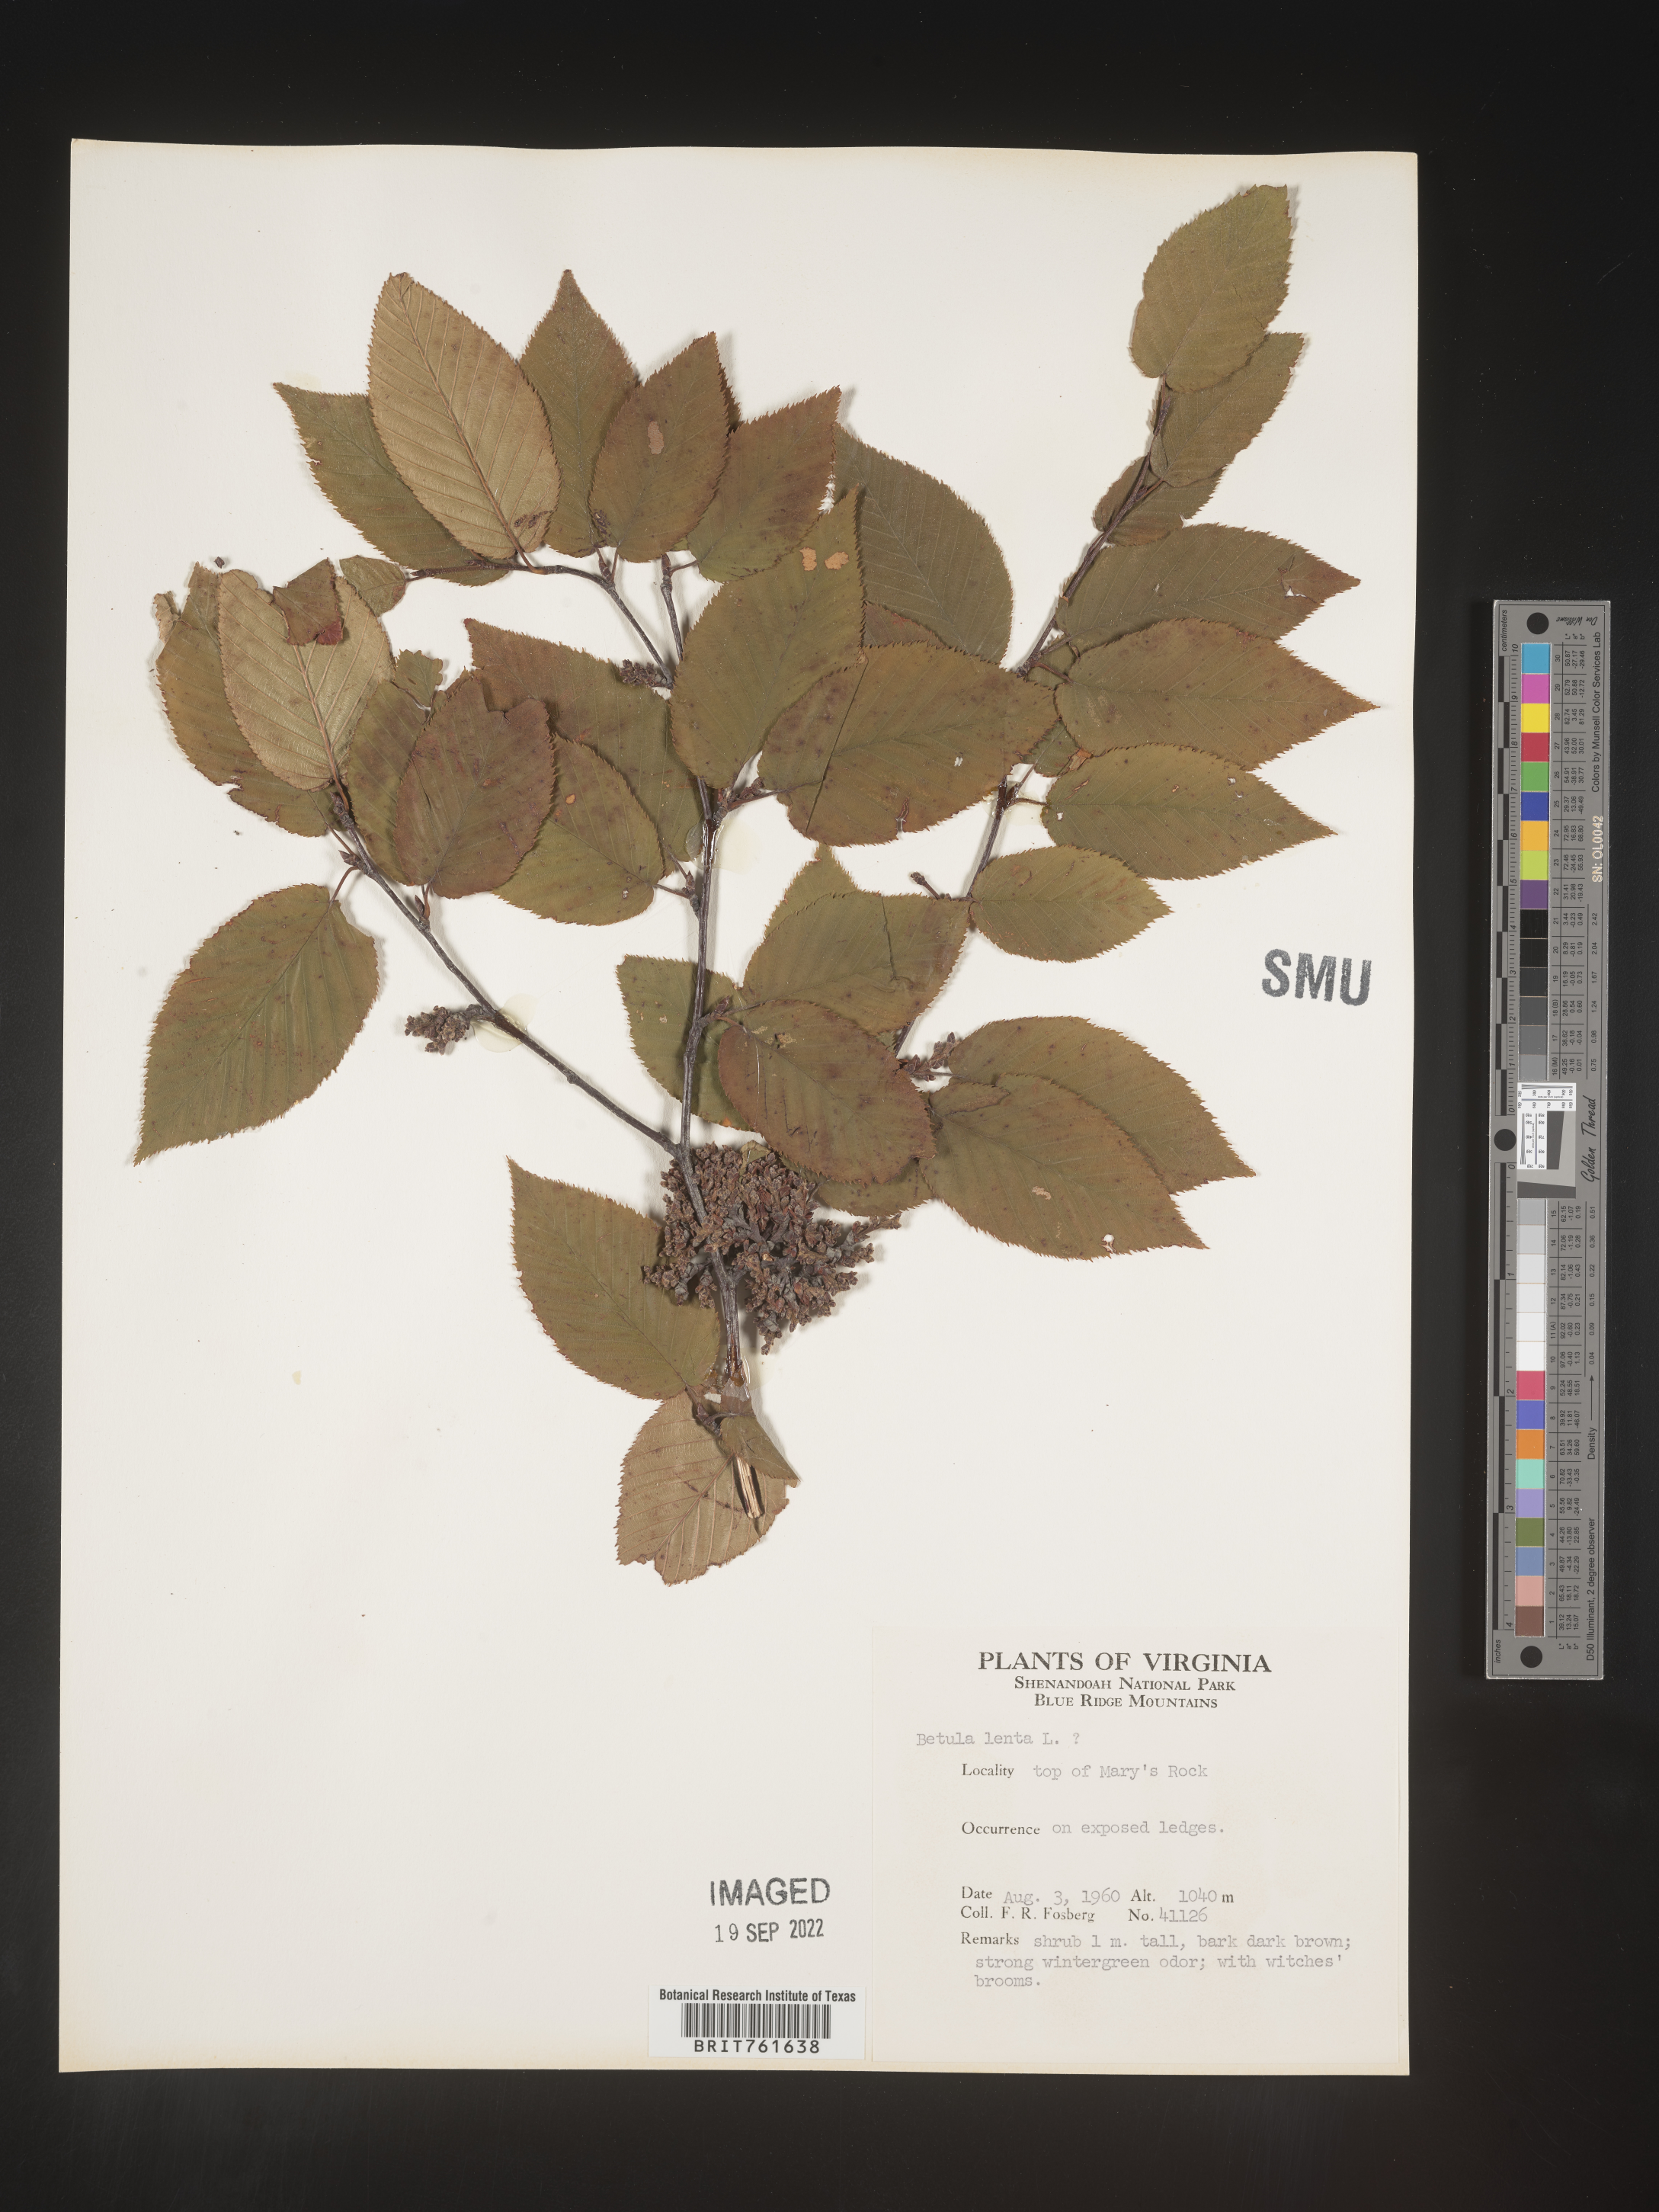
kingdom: Plantae
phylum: Tracheophyta
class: Magnoliopsida
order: Fagales
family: Betulaceae
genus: Betula
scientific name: Betula lenta
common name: Black birch
